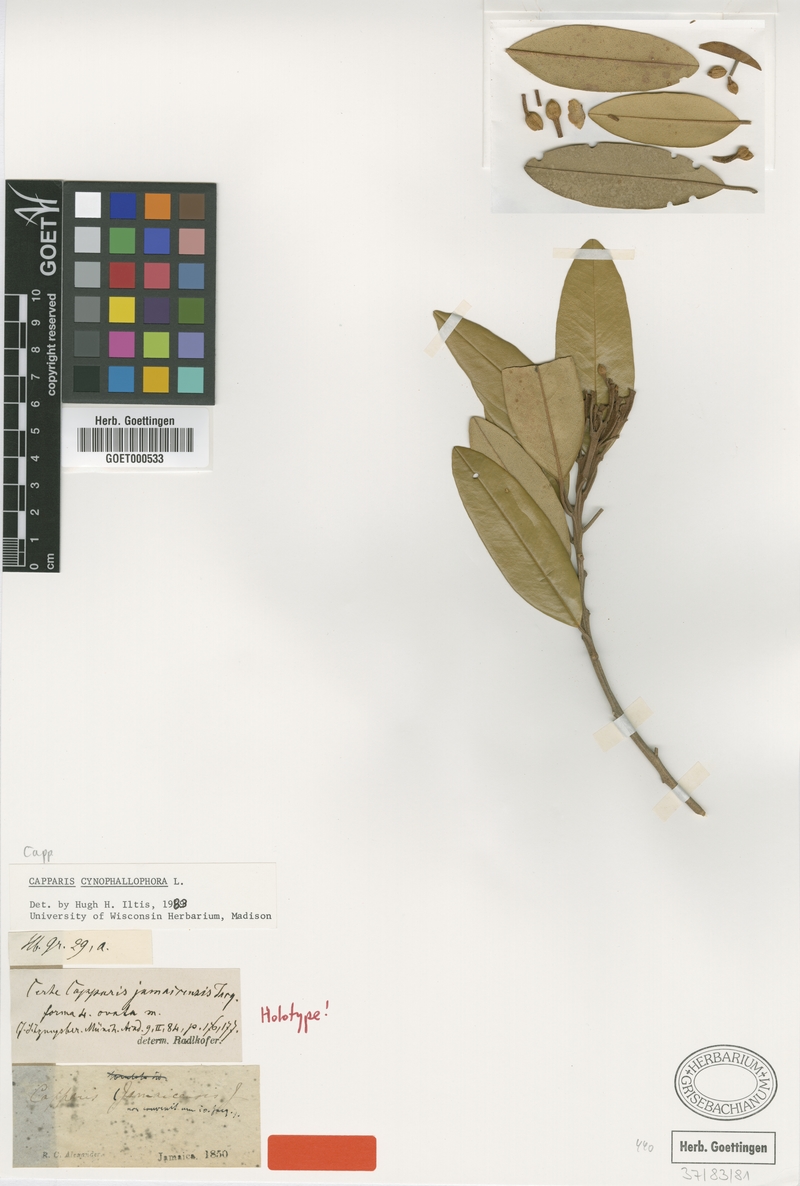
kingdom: Plantae
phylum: Tracheophyta
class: Magnoliopsida
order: Brassicales
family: Capparaceae
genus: Quadrella
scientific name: Quadrella cynophallophora
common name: Black willow
